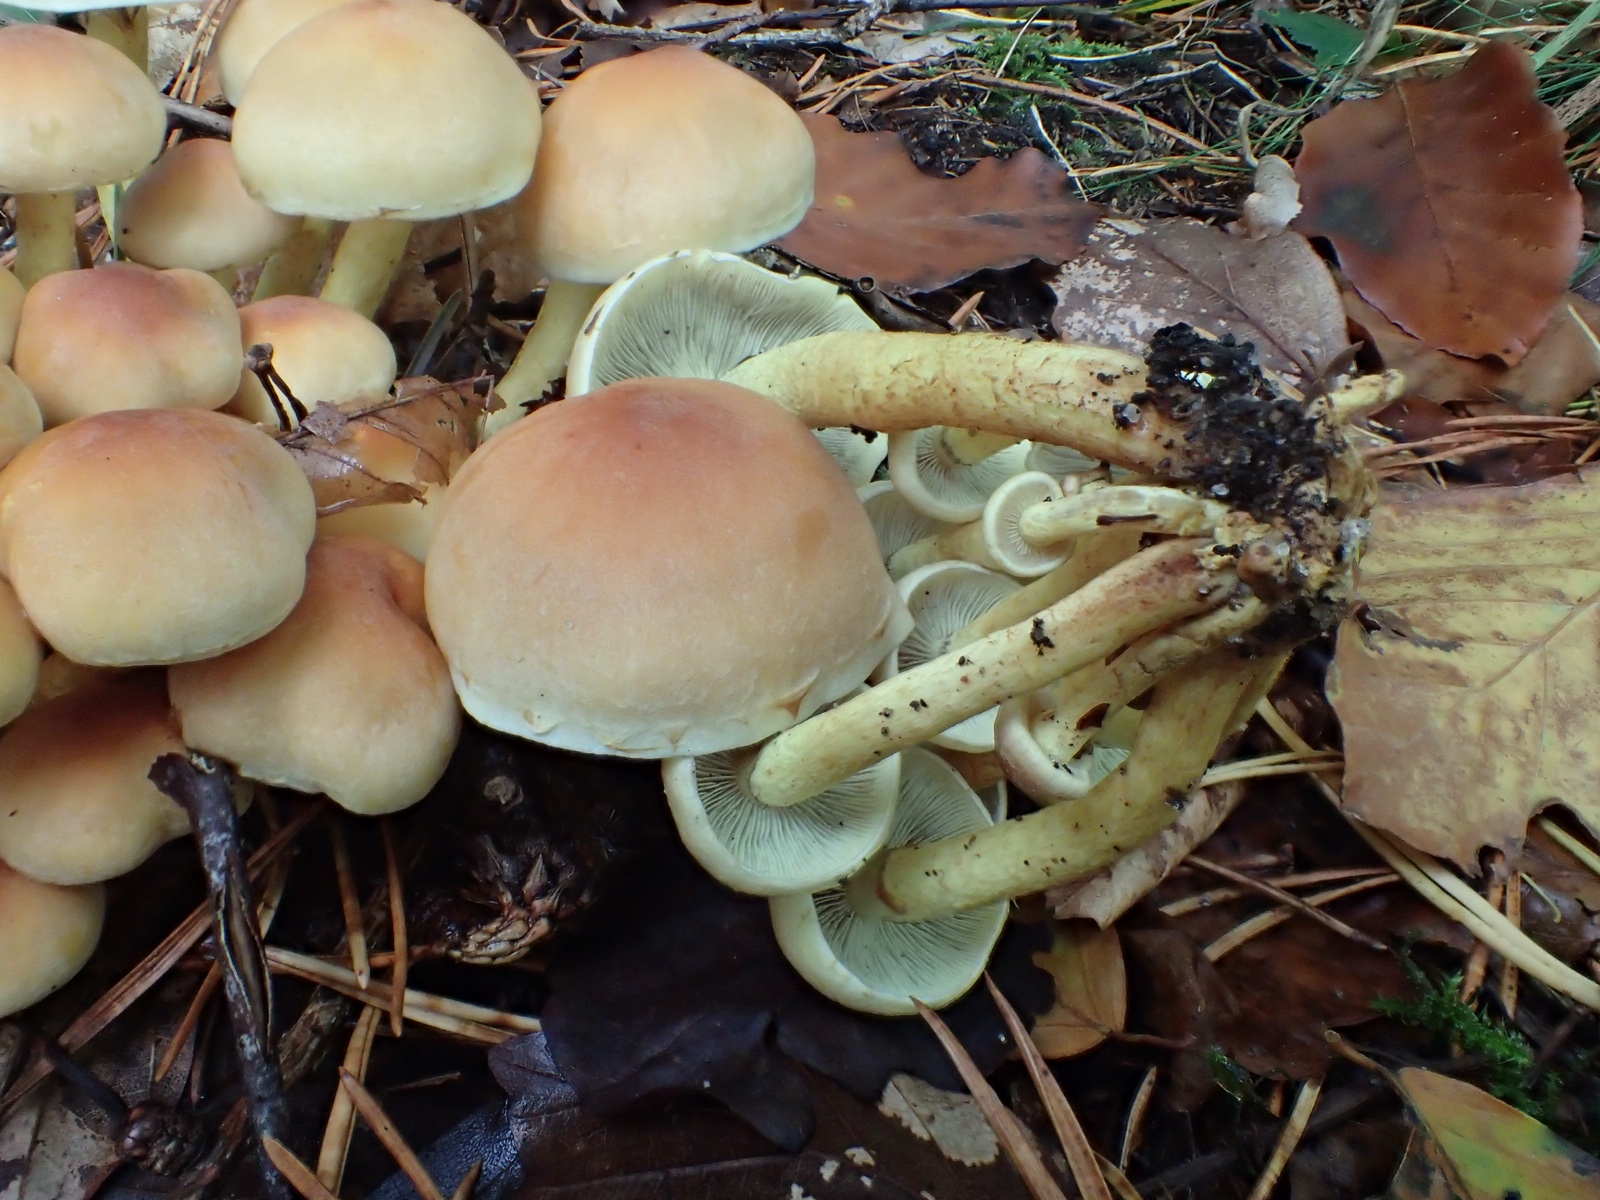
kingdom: Fungi
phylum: Basidiomycota
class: Agaricomycetes
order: Agaricales
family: Strophariaceae
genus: Hypholoma
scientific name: Hypholoma fasciculare
